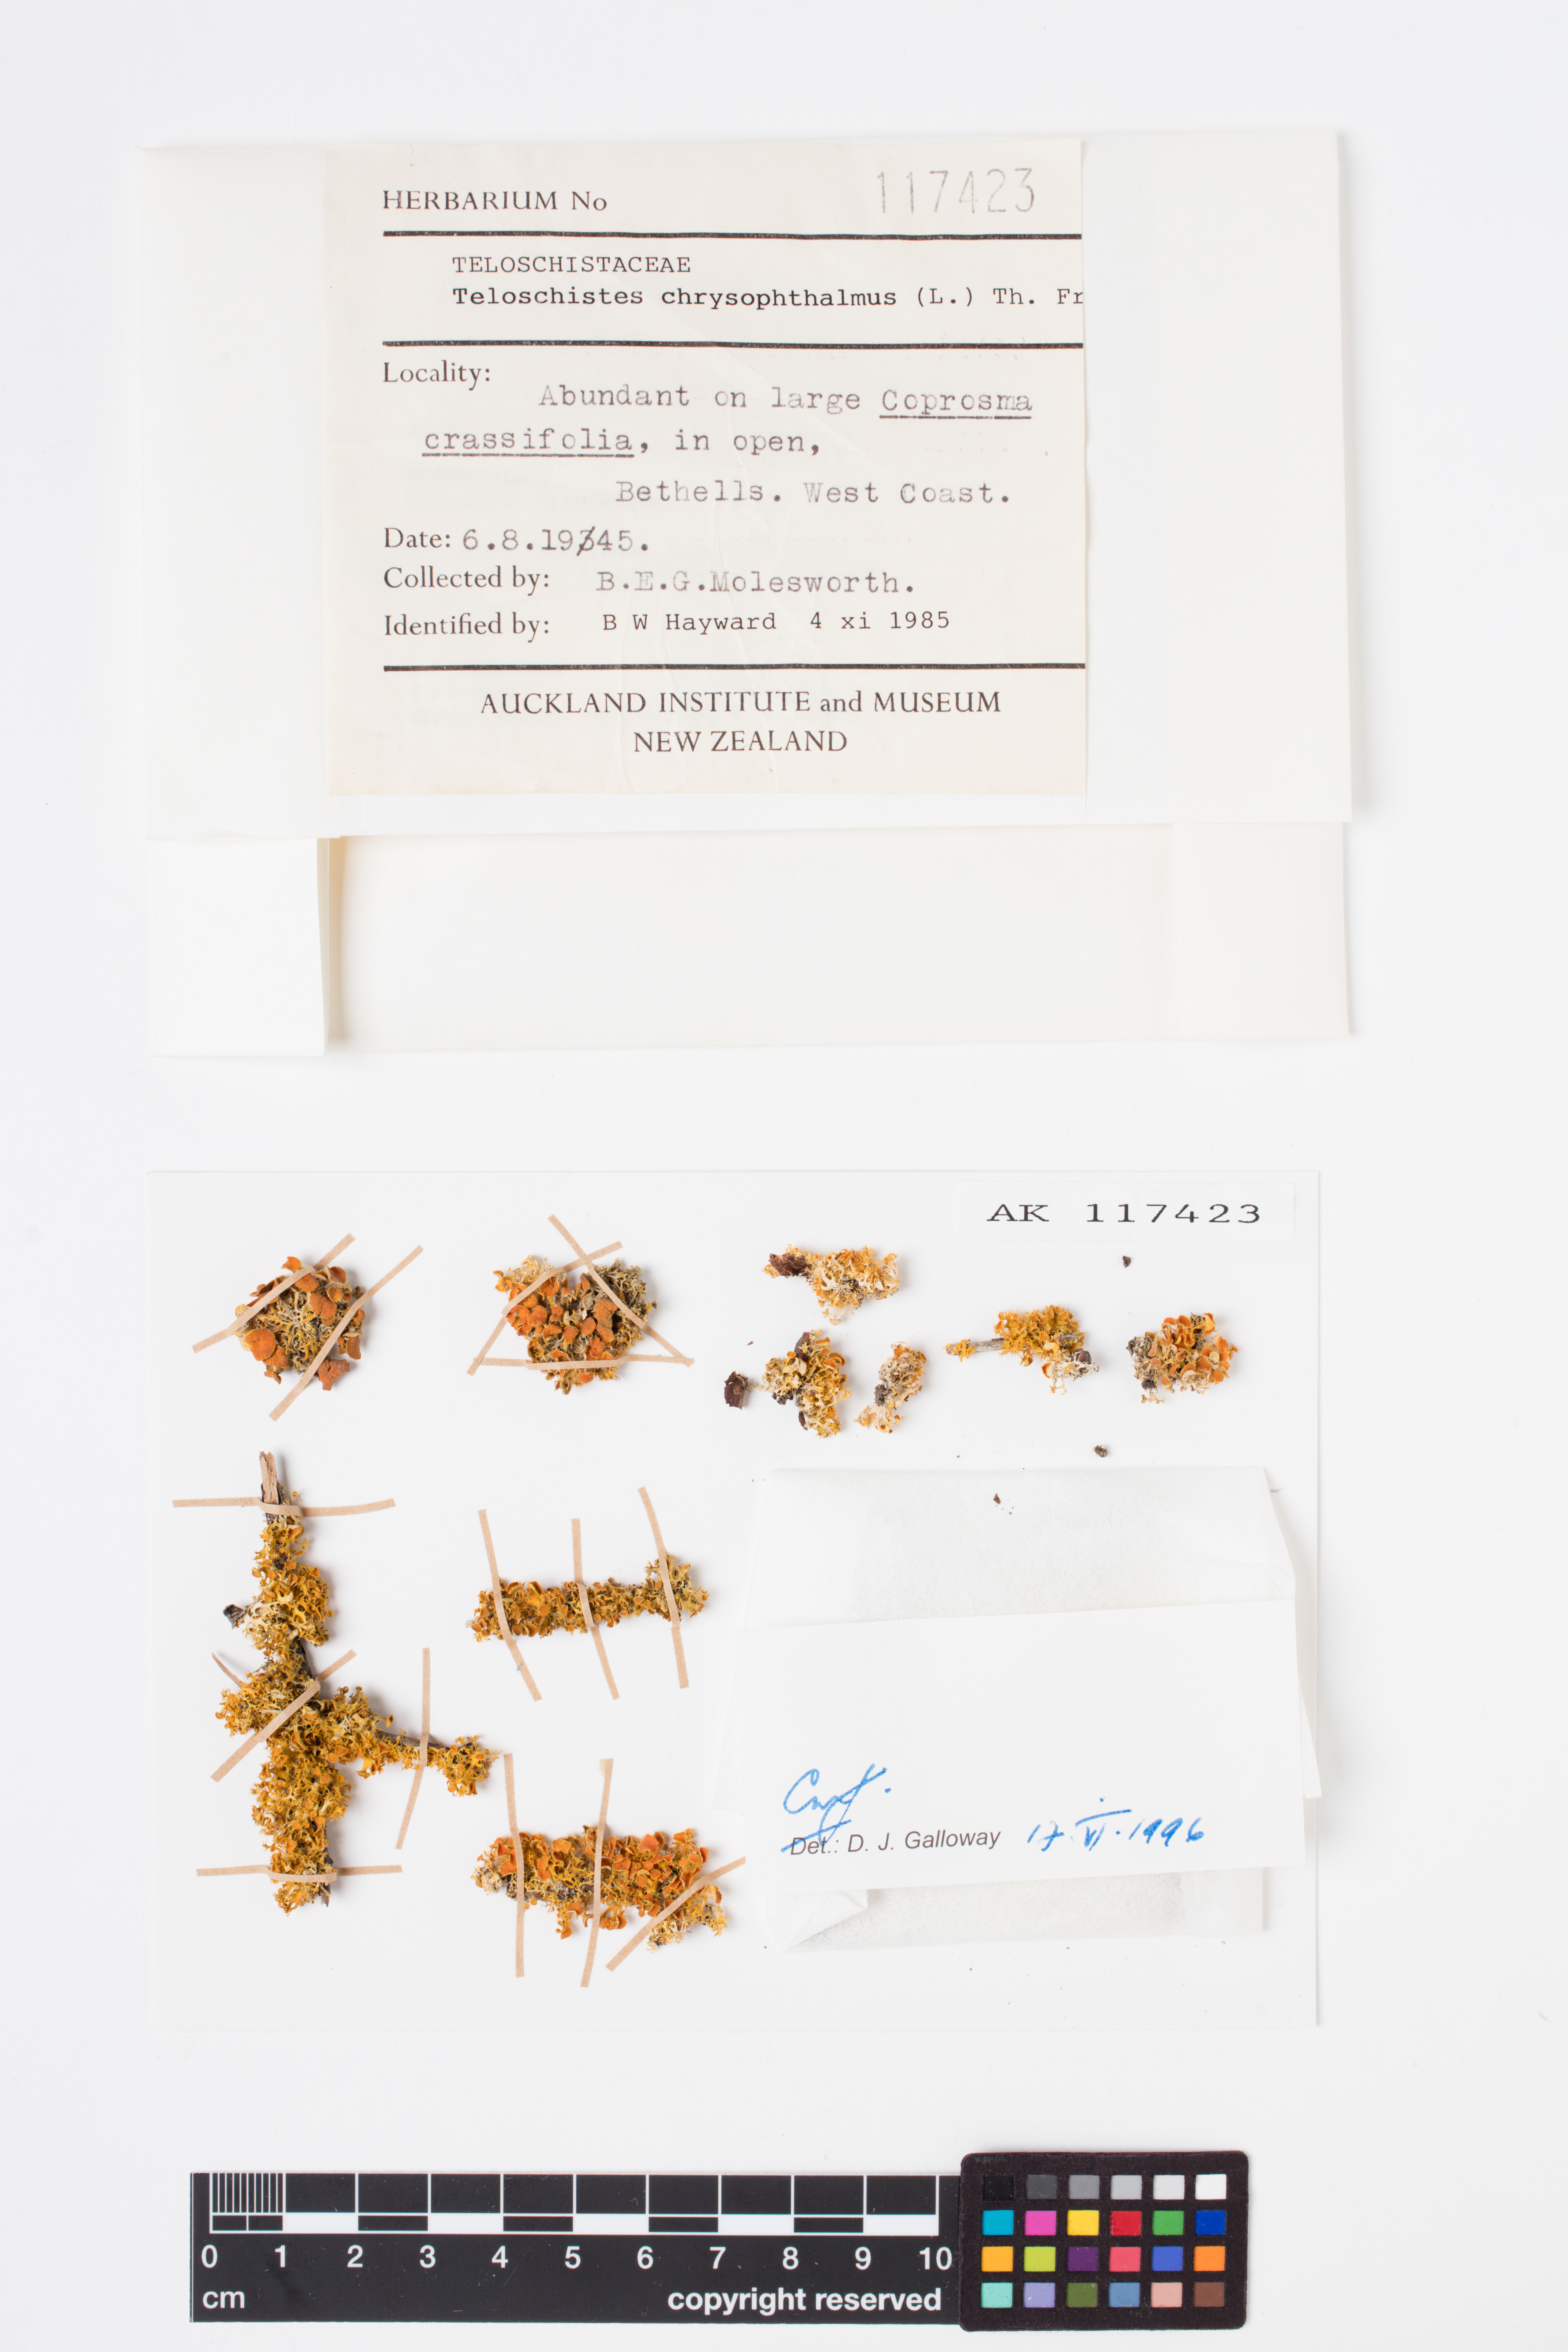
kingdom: Fungi
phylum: Ascomycota
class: Lecanoromycetes
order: Teloschistales
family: Teloschistaceae
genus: Niorma
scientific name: Niorma chrysophthalma
